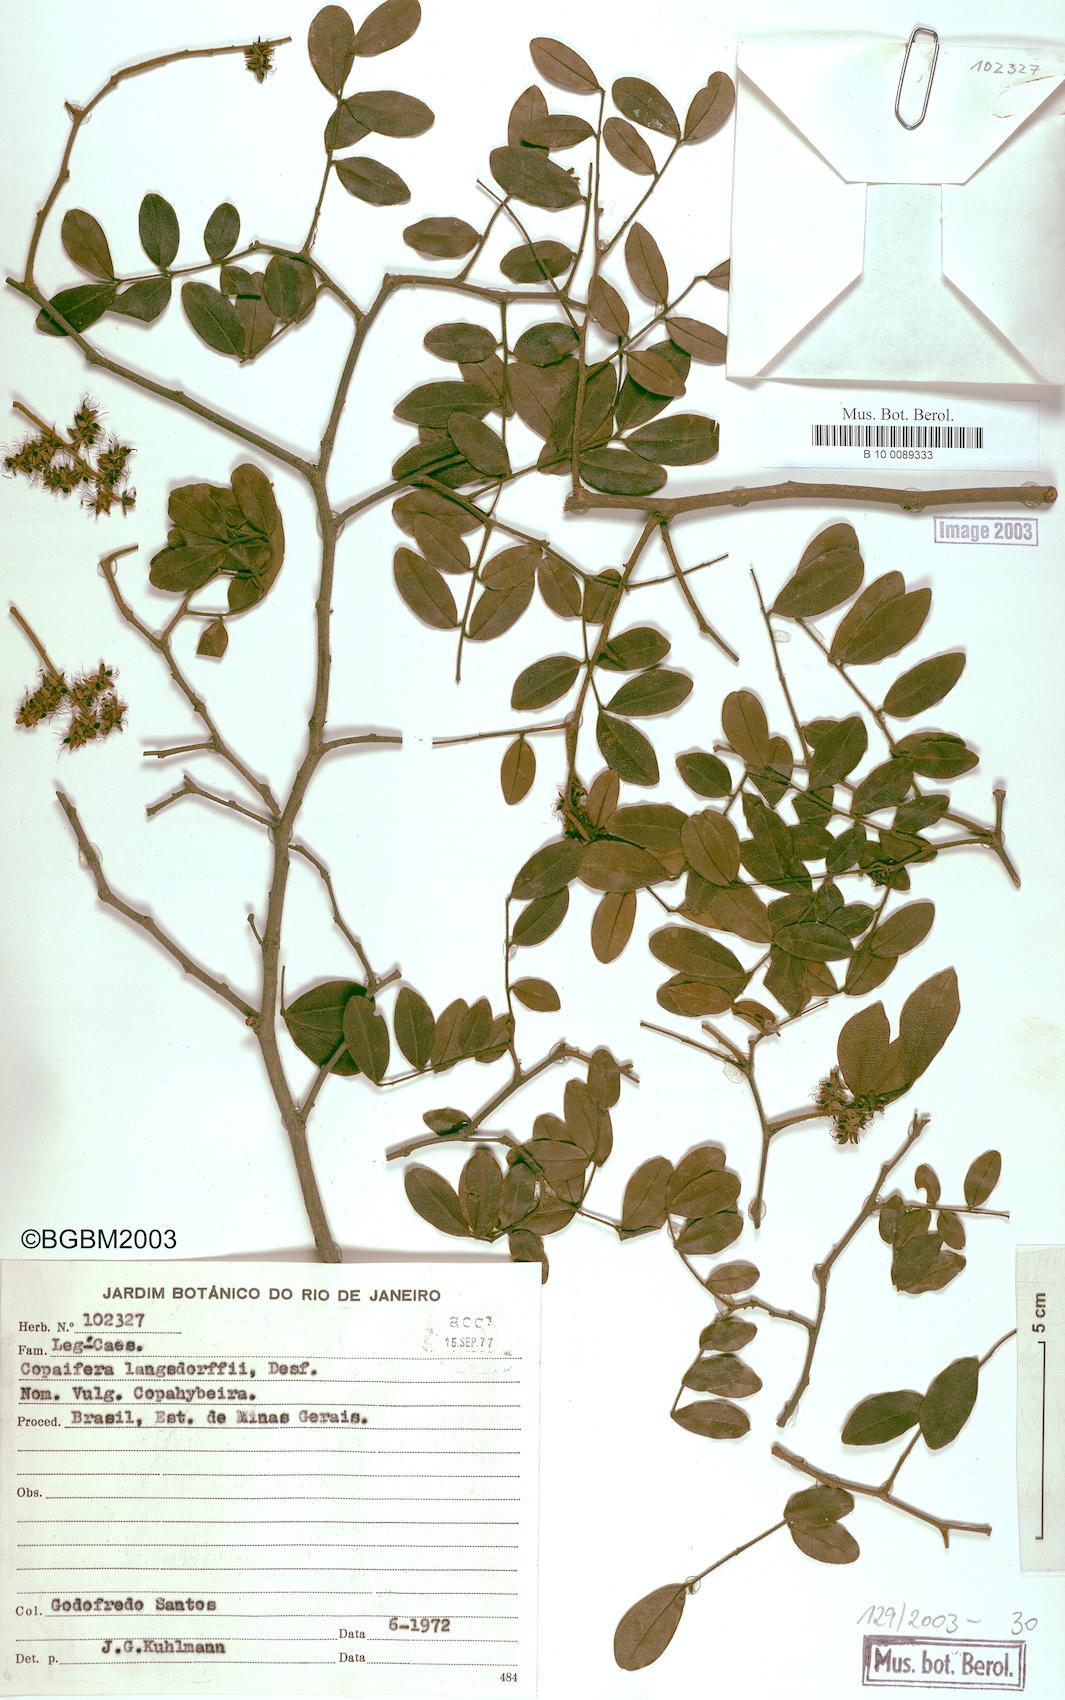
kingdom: Plantae
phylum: Tracheophyta
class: Magnoliopsida
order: Fabales
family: Fabaceae
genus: Copaifera
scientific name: Copaifera langsdorffii
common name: Brazilian diesel tree
